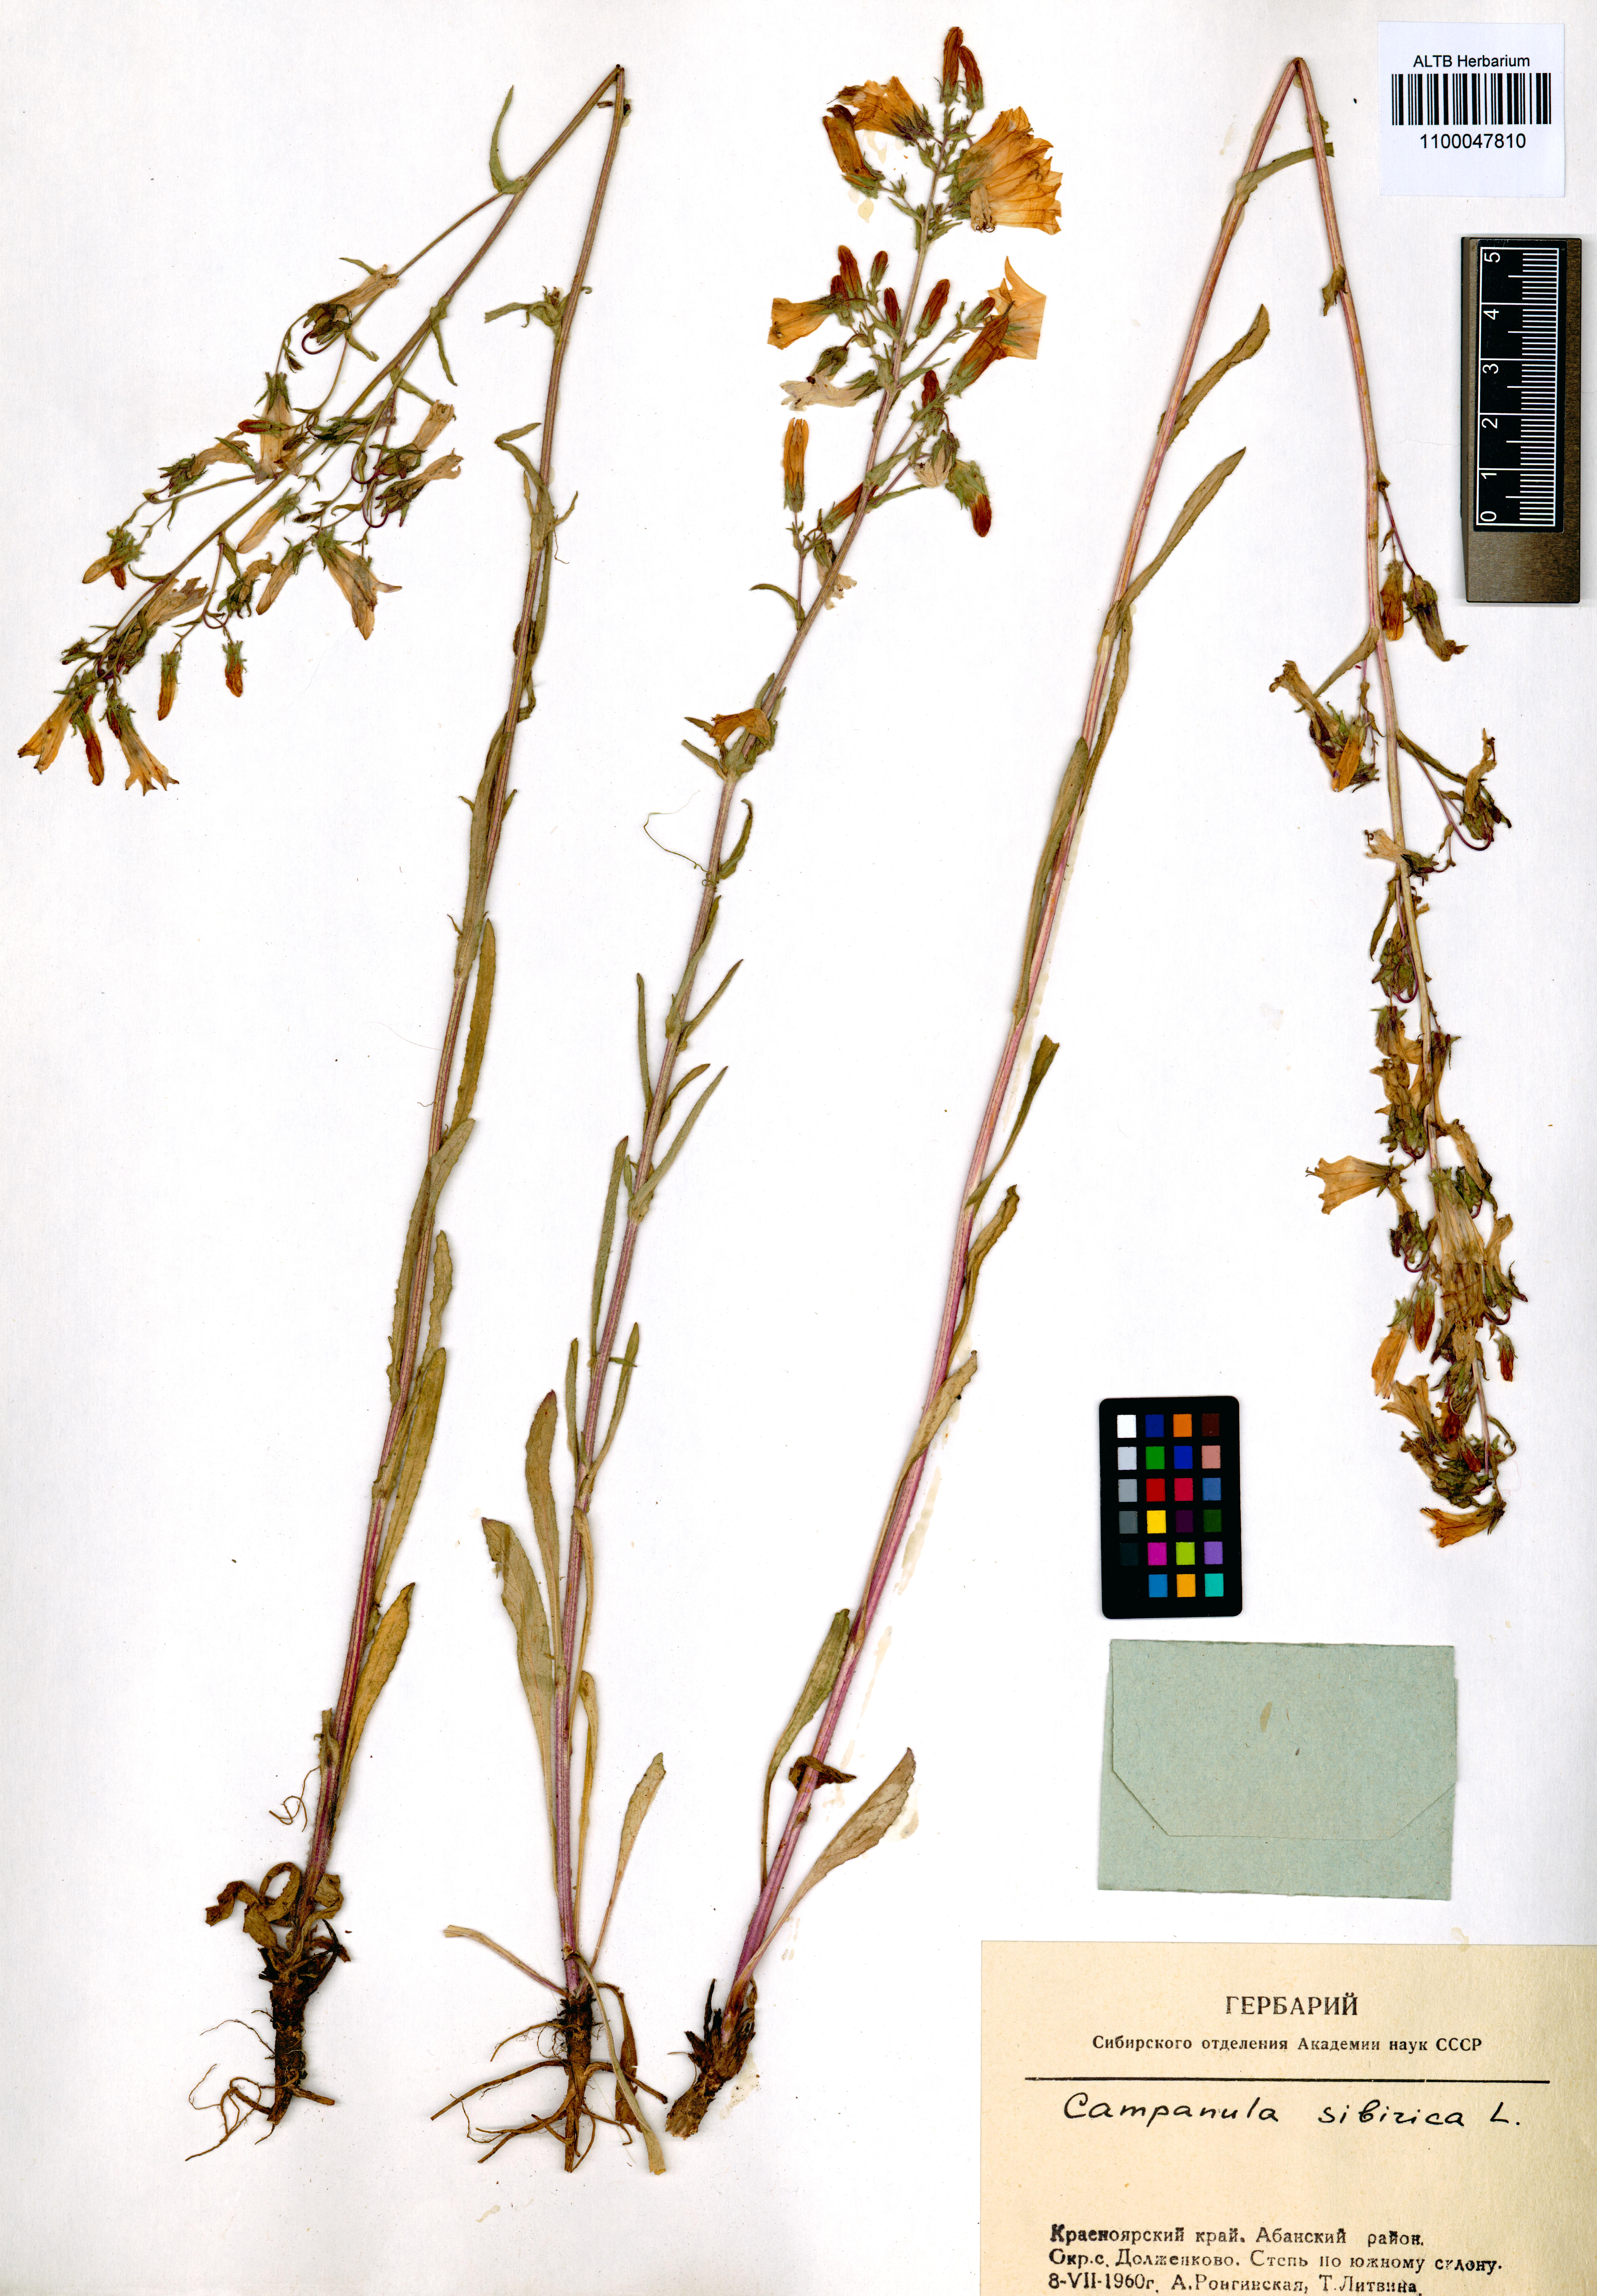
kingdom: Plantae
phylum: Tracheophyta
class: Magnoliopsida
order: Asterales
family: Campanulaceae
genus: Campanula
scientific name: Campanula sibirica
